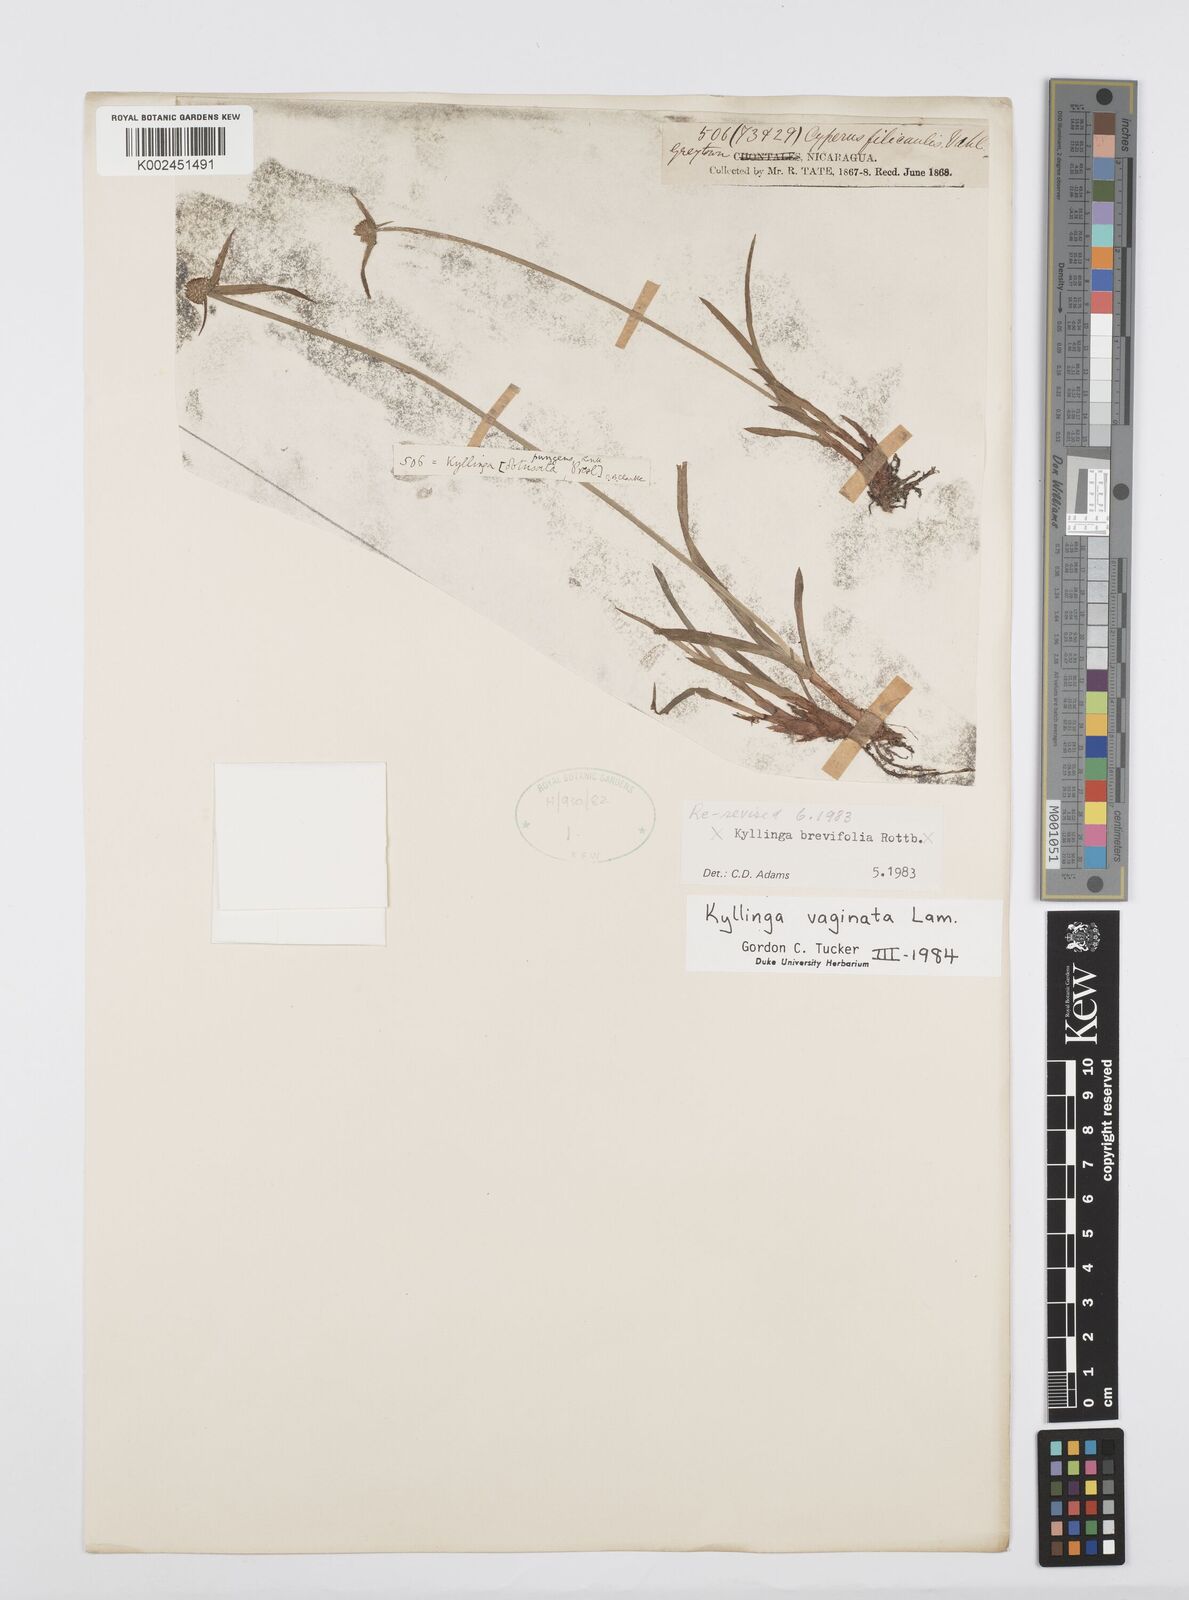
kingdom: Plantae
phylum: Tracheophyta
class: Liliopsida
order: Poales
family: Cyperaceae
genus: Cyperus
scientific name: Cyperus obtusatus
